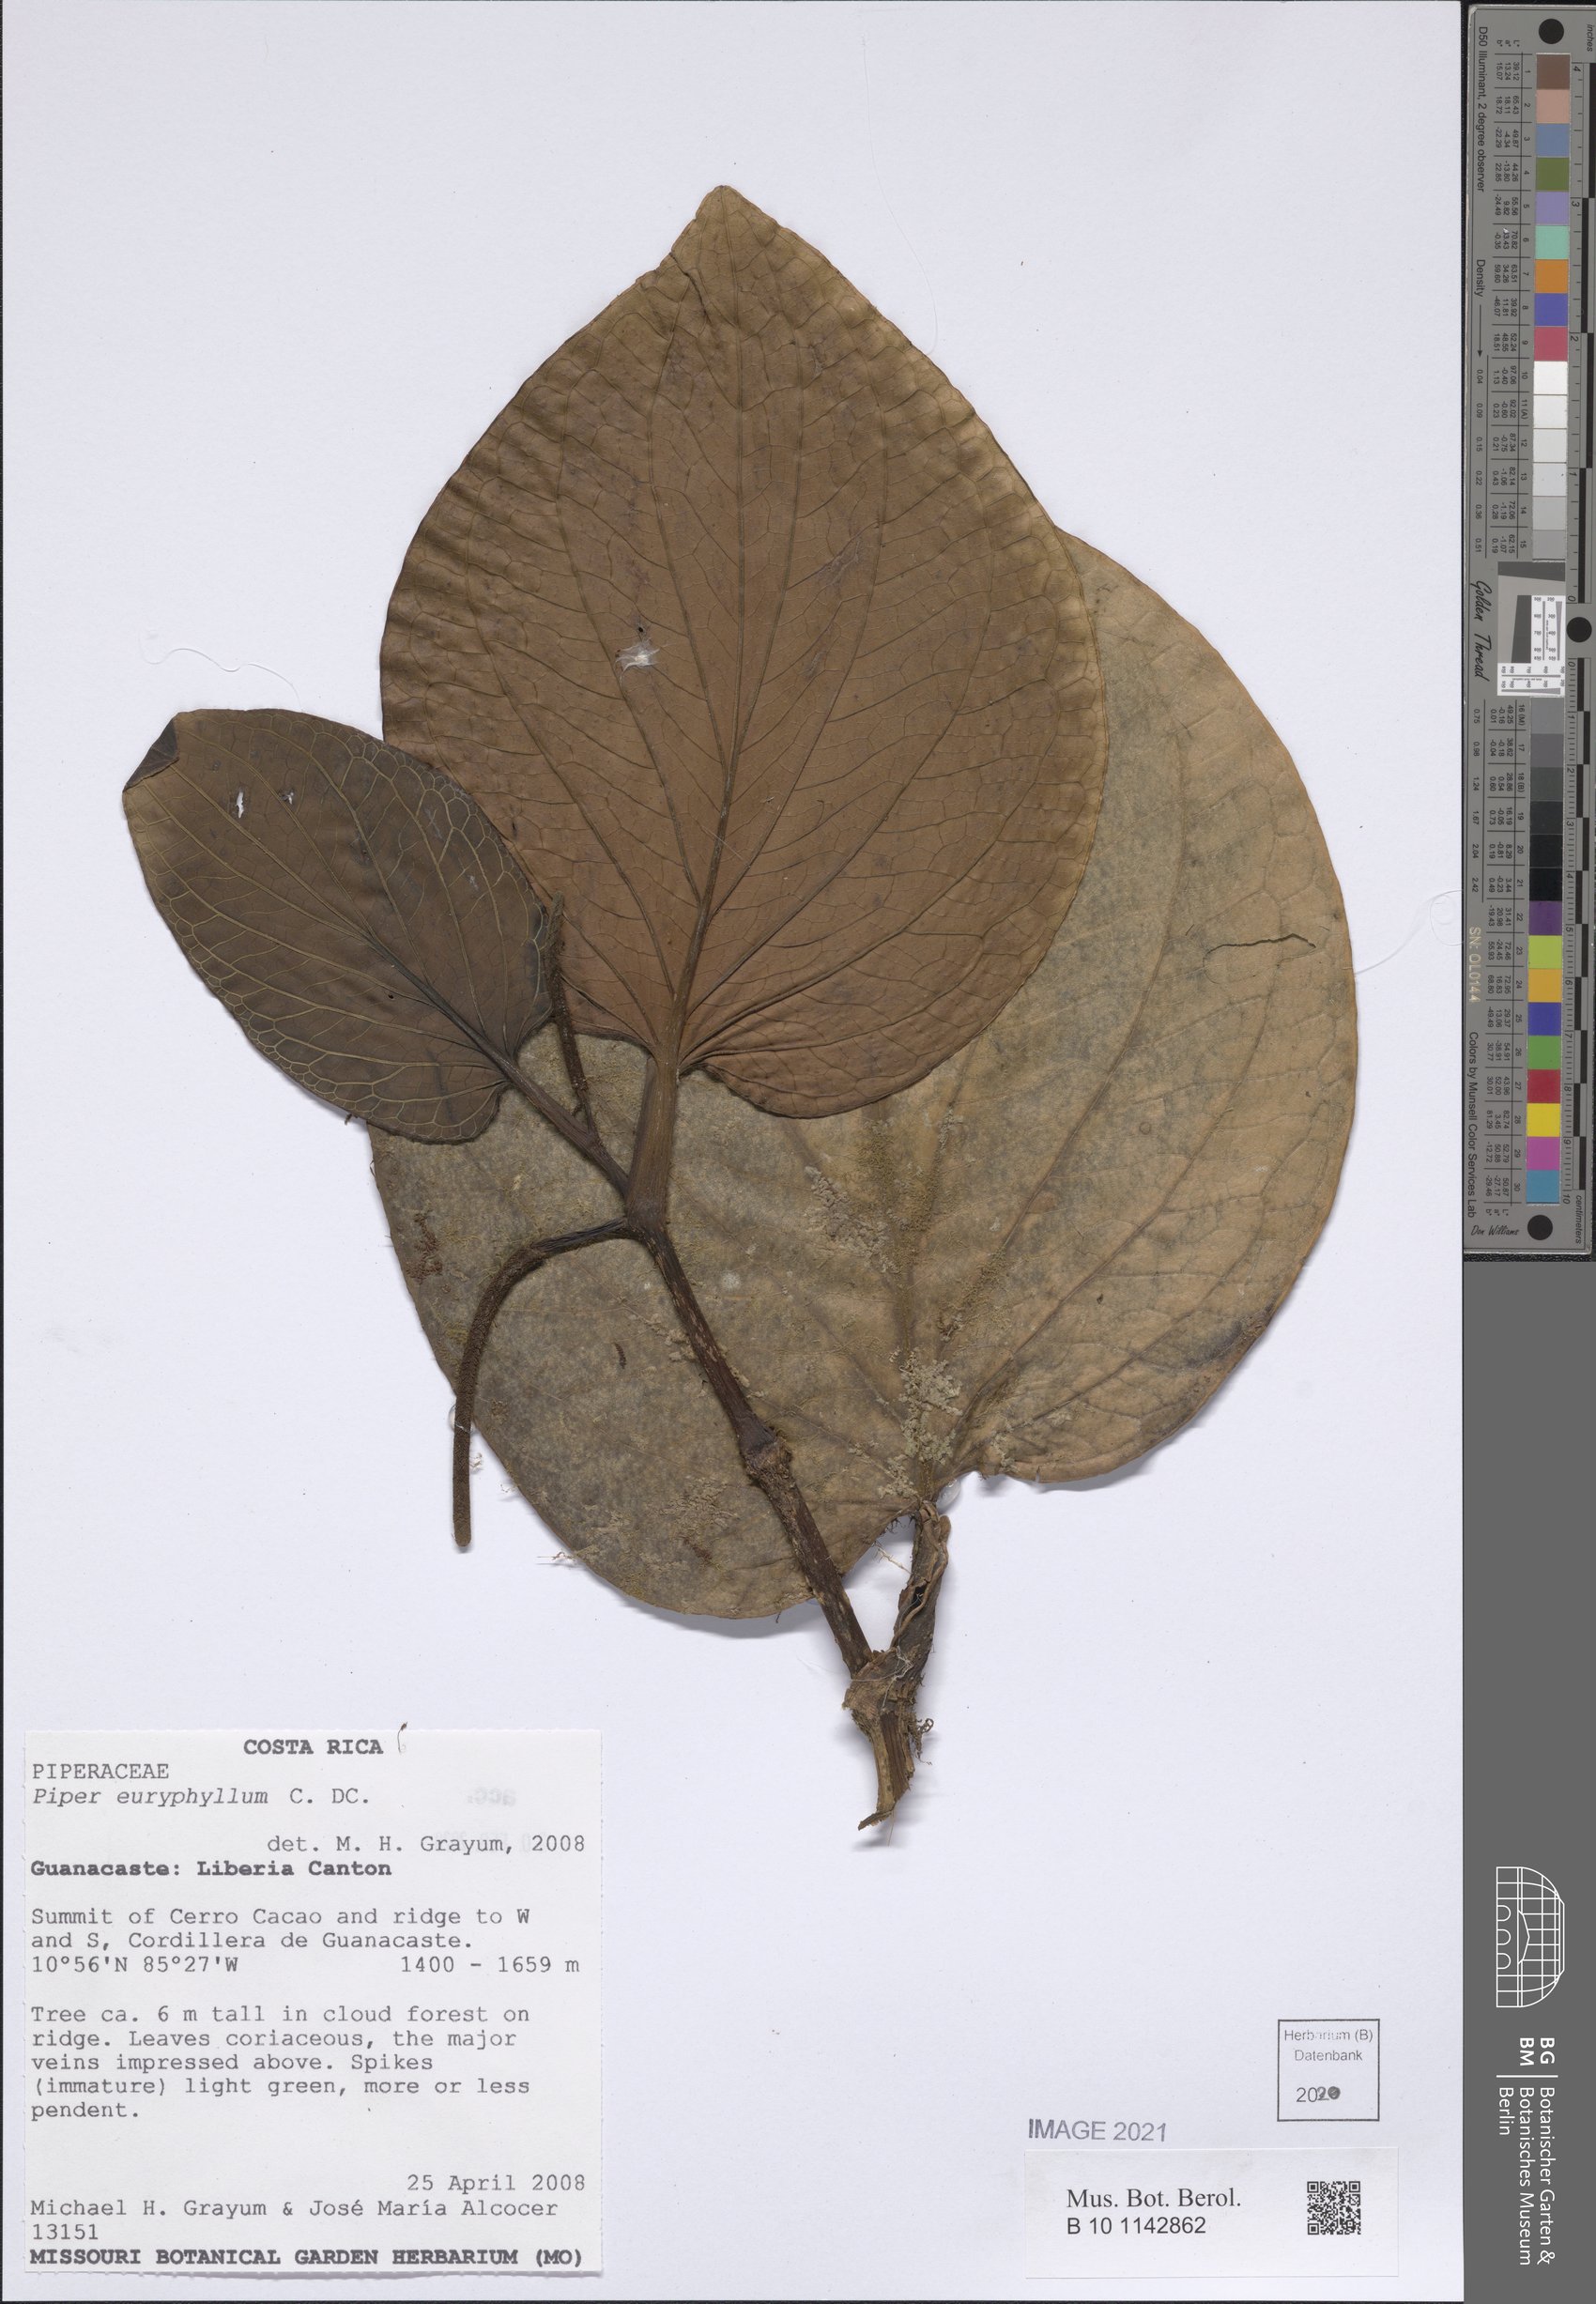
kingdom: Plantae
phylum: Tracheophyta
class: Magnoliopsida
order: Piperales
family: Piperaceae
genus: Piper
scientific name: Piper euryphyllum
